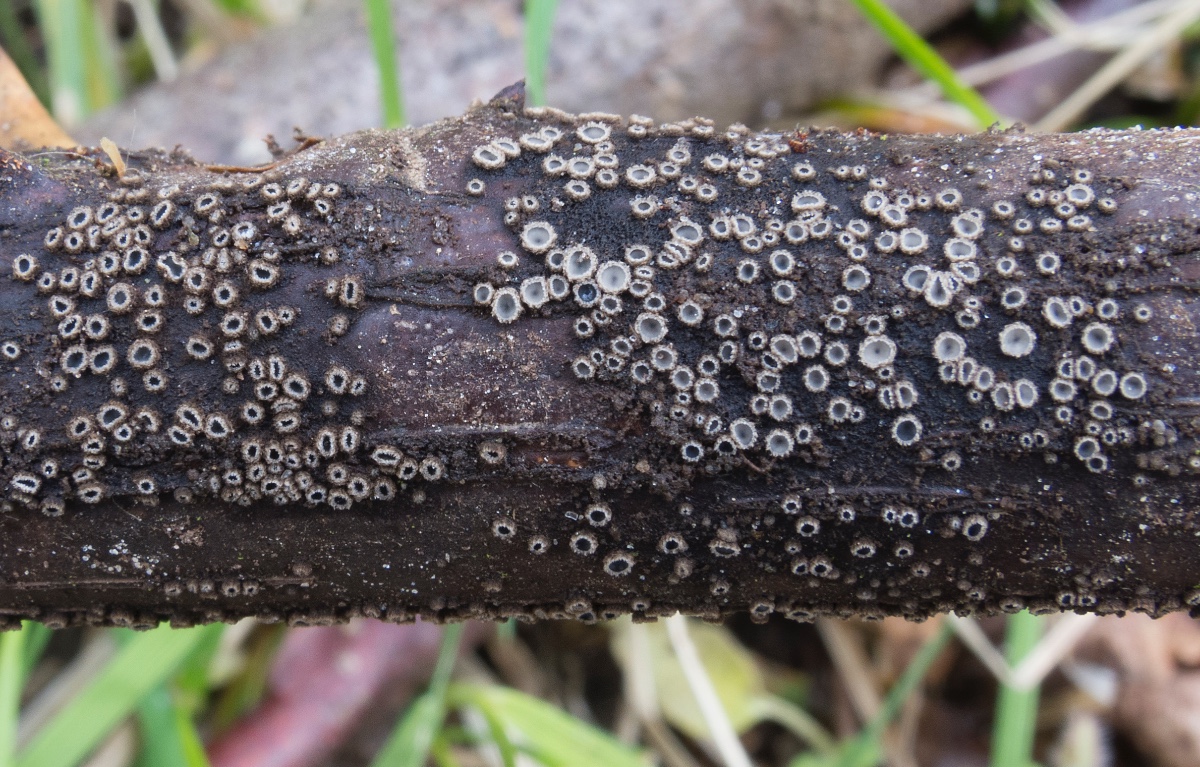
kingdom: Fungi
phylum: Ascomycota
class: Leotiomycetes
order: Helotiales
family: Mollisiaceae
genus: Mollisia
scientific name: Mollisia rosae
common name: rose-gråskive
